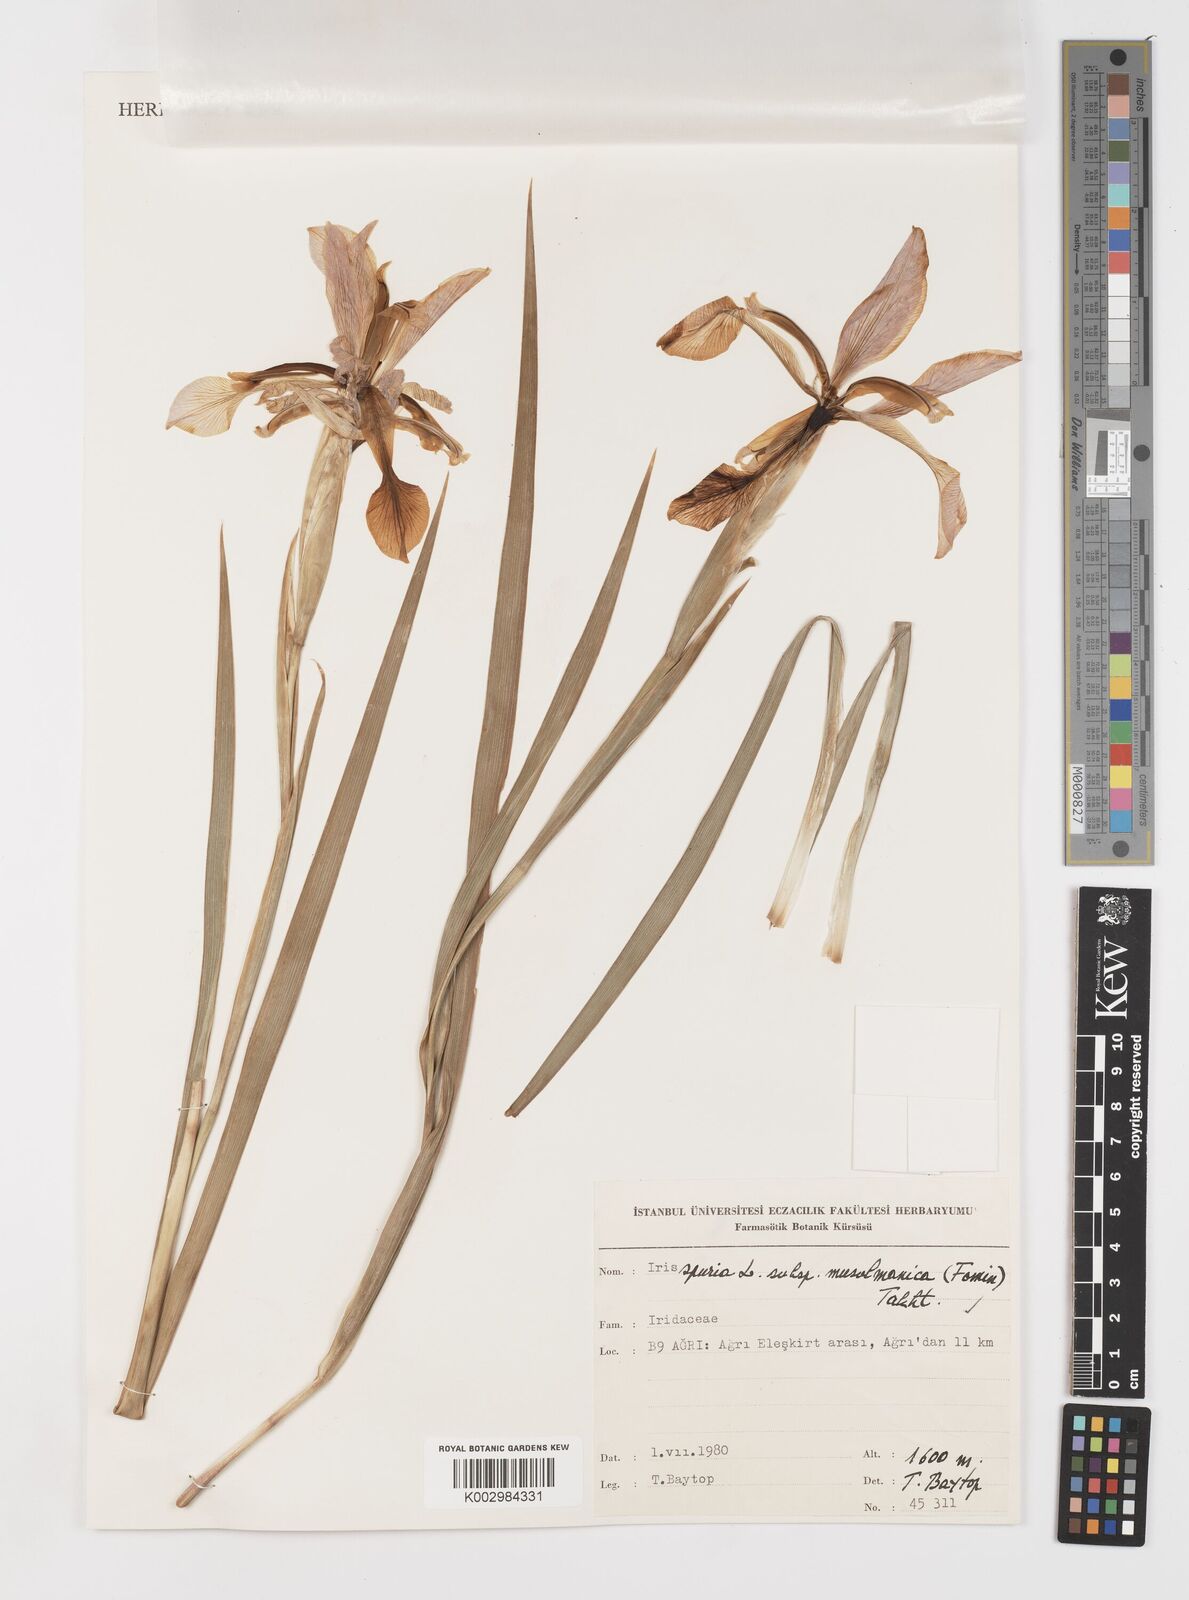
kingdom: Plantae
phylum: Tracheophyta
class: Liliopsida
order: Asparagales
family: Iridaceae
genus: Iris
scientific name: Iris spuria
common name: Blue iris
